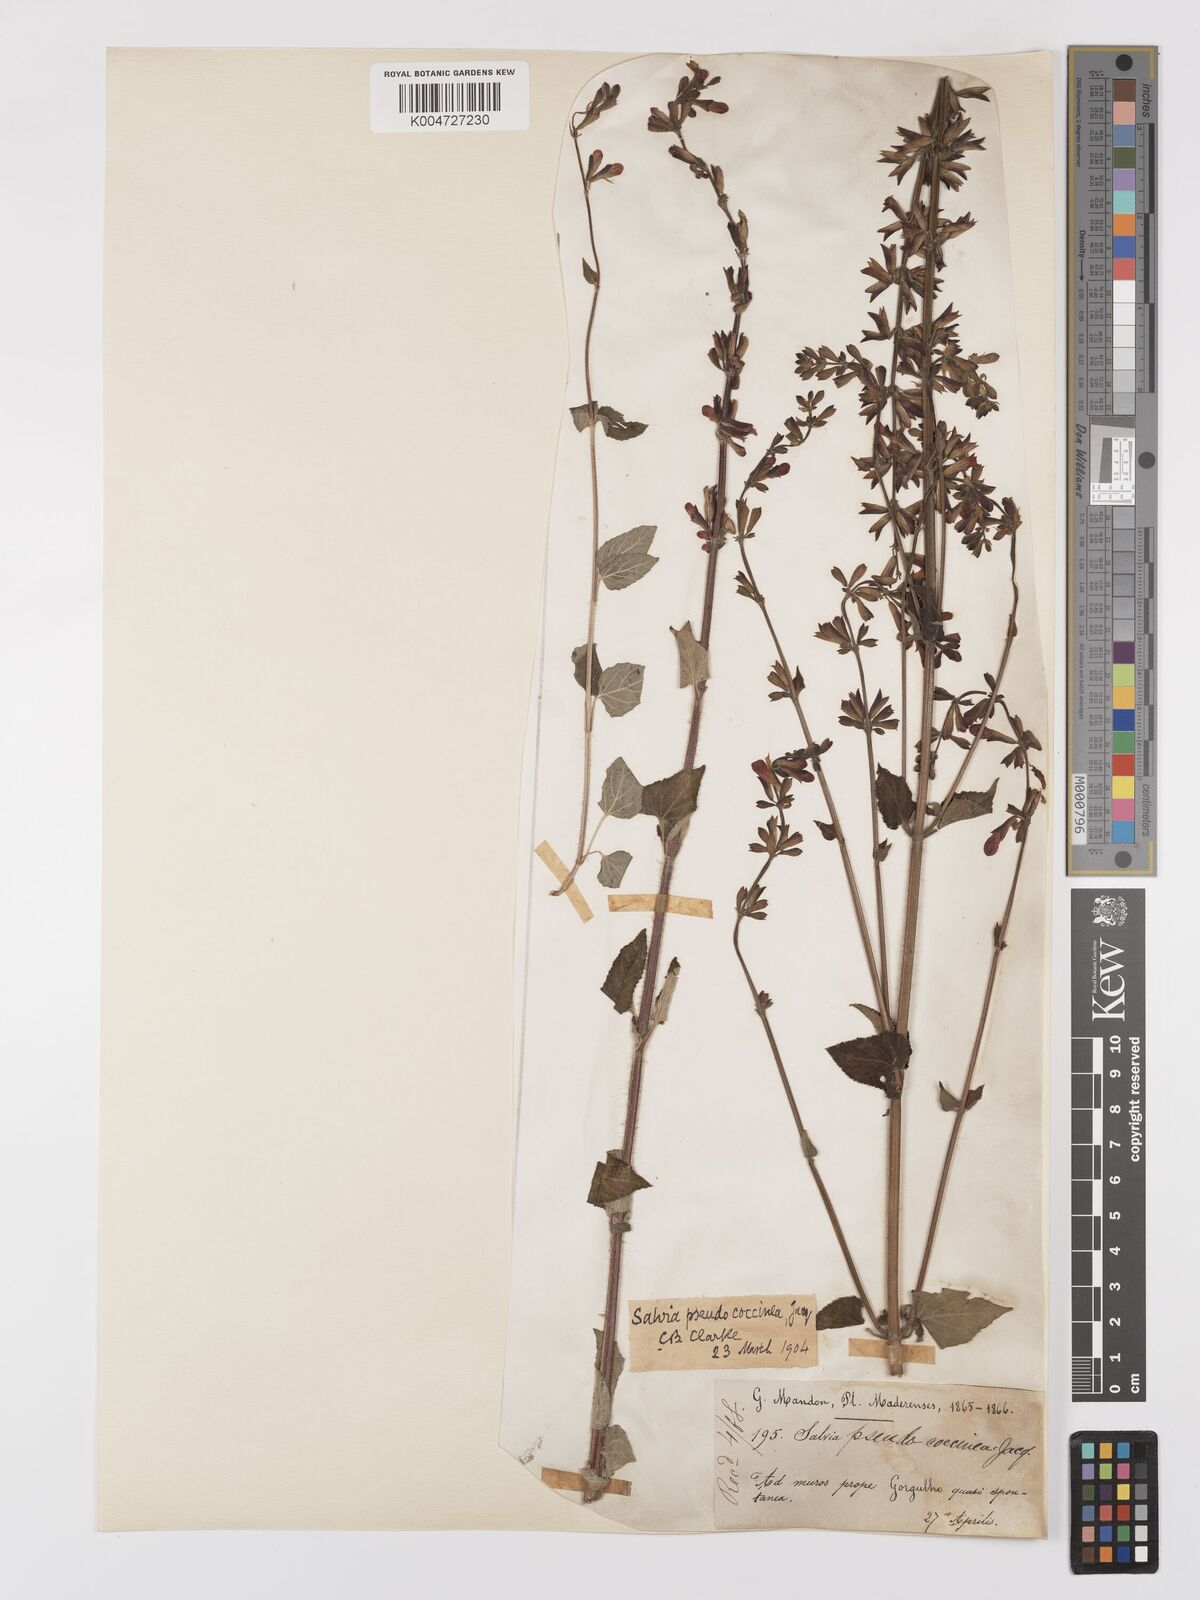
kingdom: Plantae
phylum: Tracheophyta
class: Magnoliopsida
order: Lamiales
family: Lamiaceae
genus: Salvia
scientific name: Salvia
